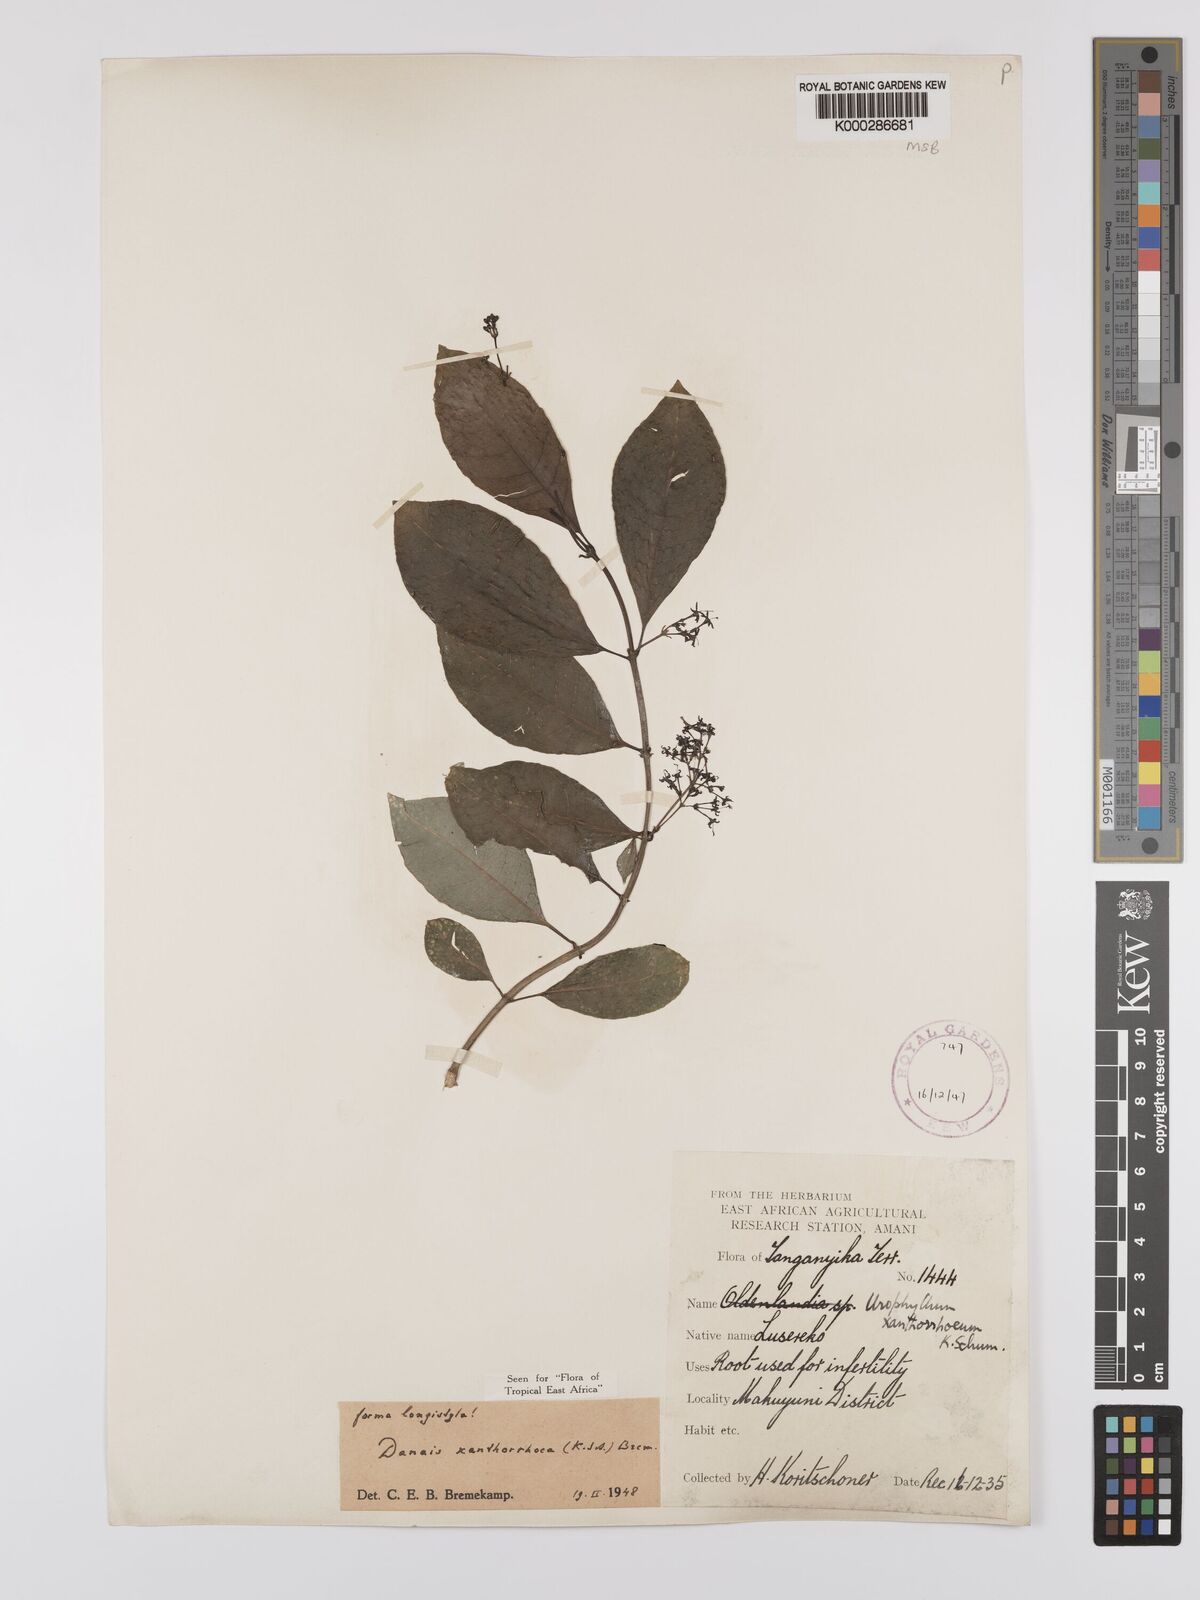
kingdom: Plantae
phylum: Tracheophyta
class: Magnoliopsida
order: Gentianales
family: Rubiaceae
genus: Danais
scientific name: Danais xanthorrhoea
